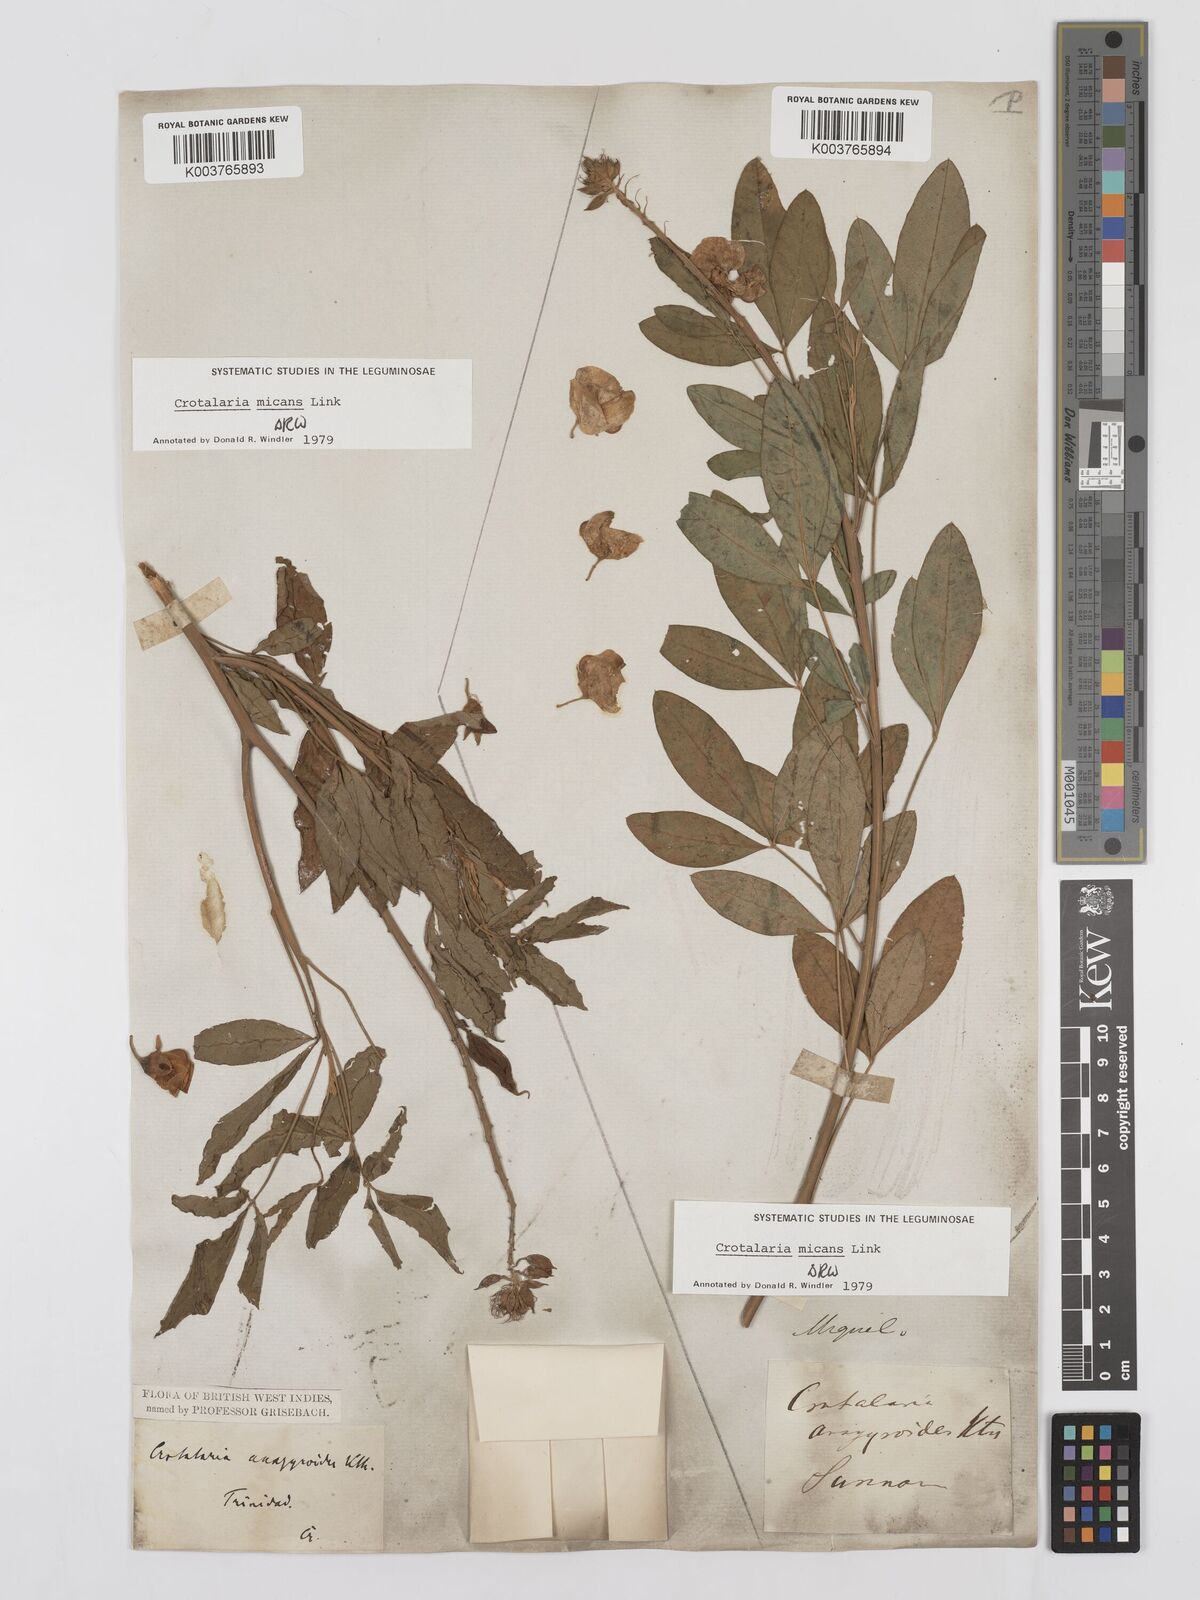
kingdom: Plantae
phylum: Tracheophyta
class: Magnoliopsida
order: Fabales
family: Fabaceae
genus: Crotalaria
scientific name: Crotalaria micans
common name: Caracas rattlebox
